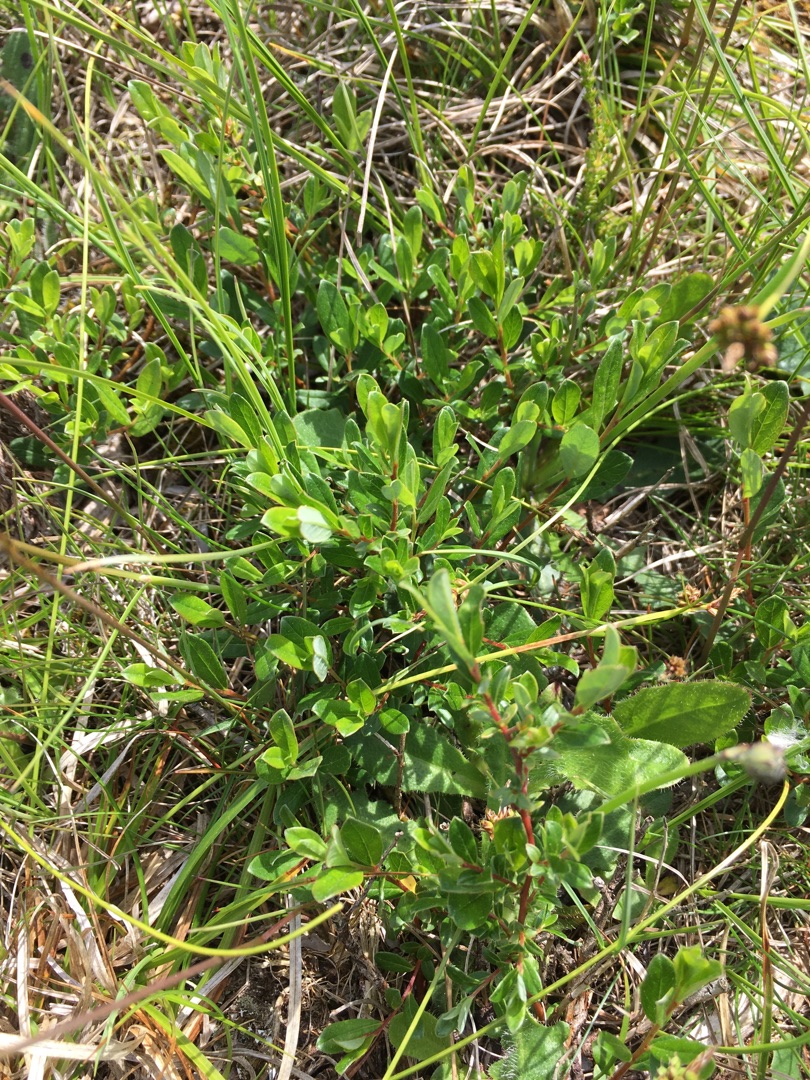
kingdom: Plantae
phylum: Tracheophyta
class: Magnoliopsida
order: Malpighiales
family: Salicaceae
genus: Salix
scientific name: Salix repens
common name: Krybende pil
